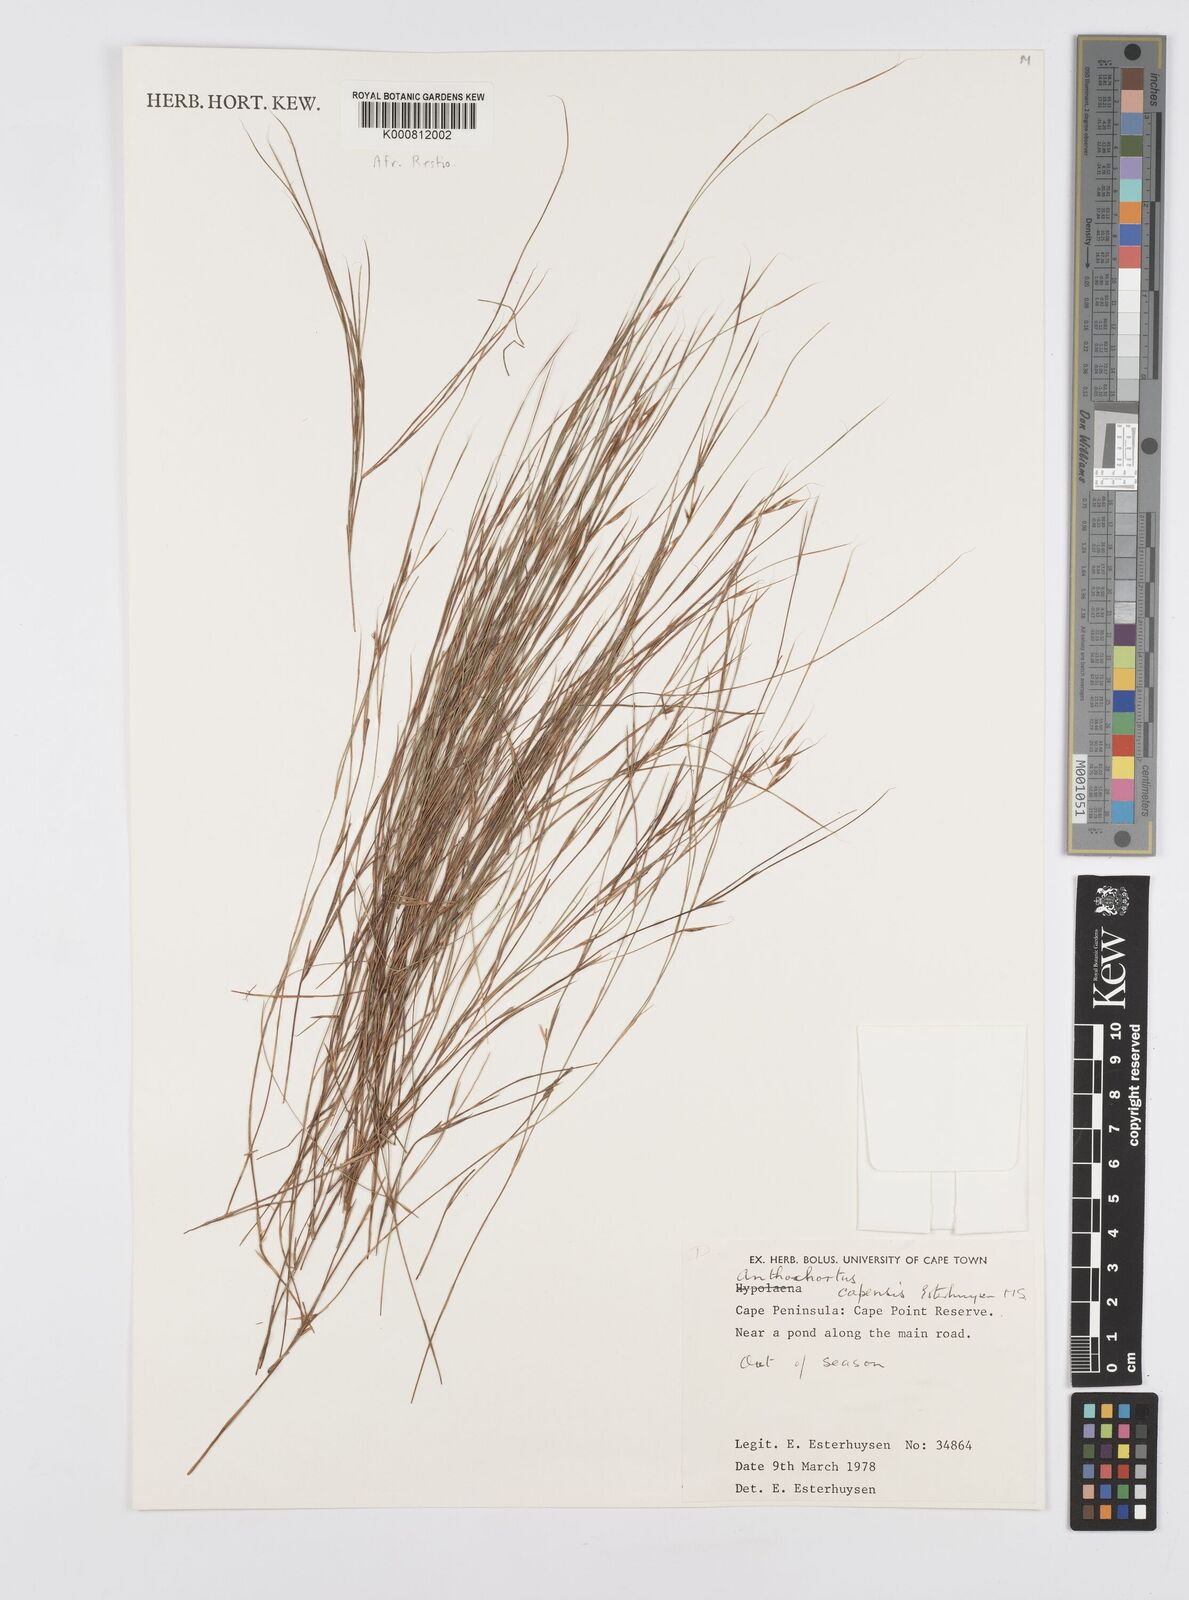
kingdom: Plantae
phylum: Tracheophyta
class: Liliopsida
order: Poales
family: Restionaceae
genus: Anthochortus
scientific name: Anthochortus capensis
